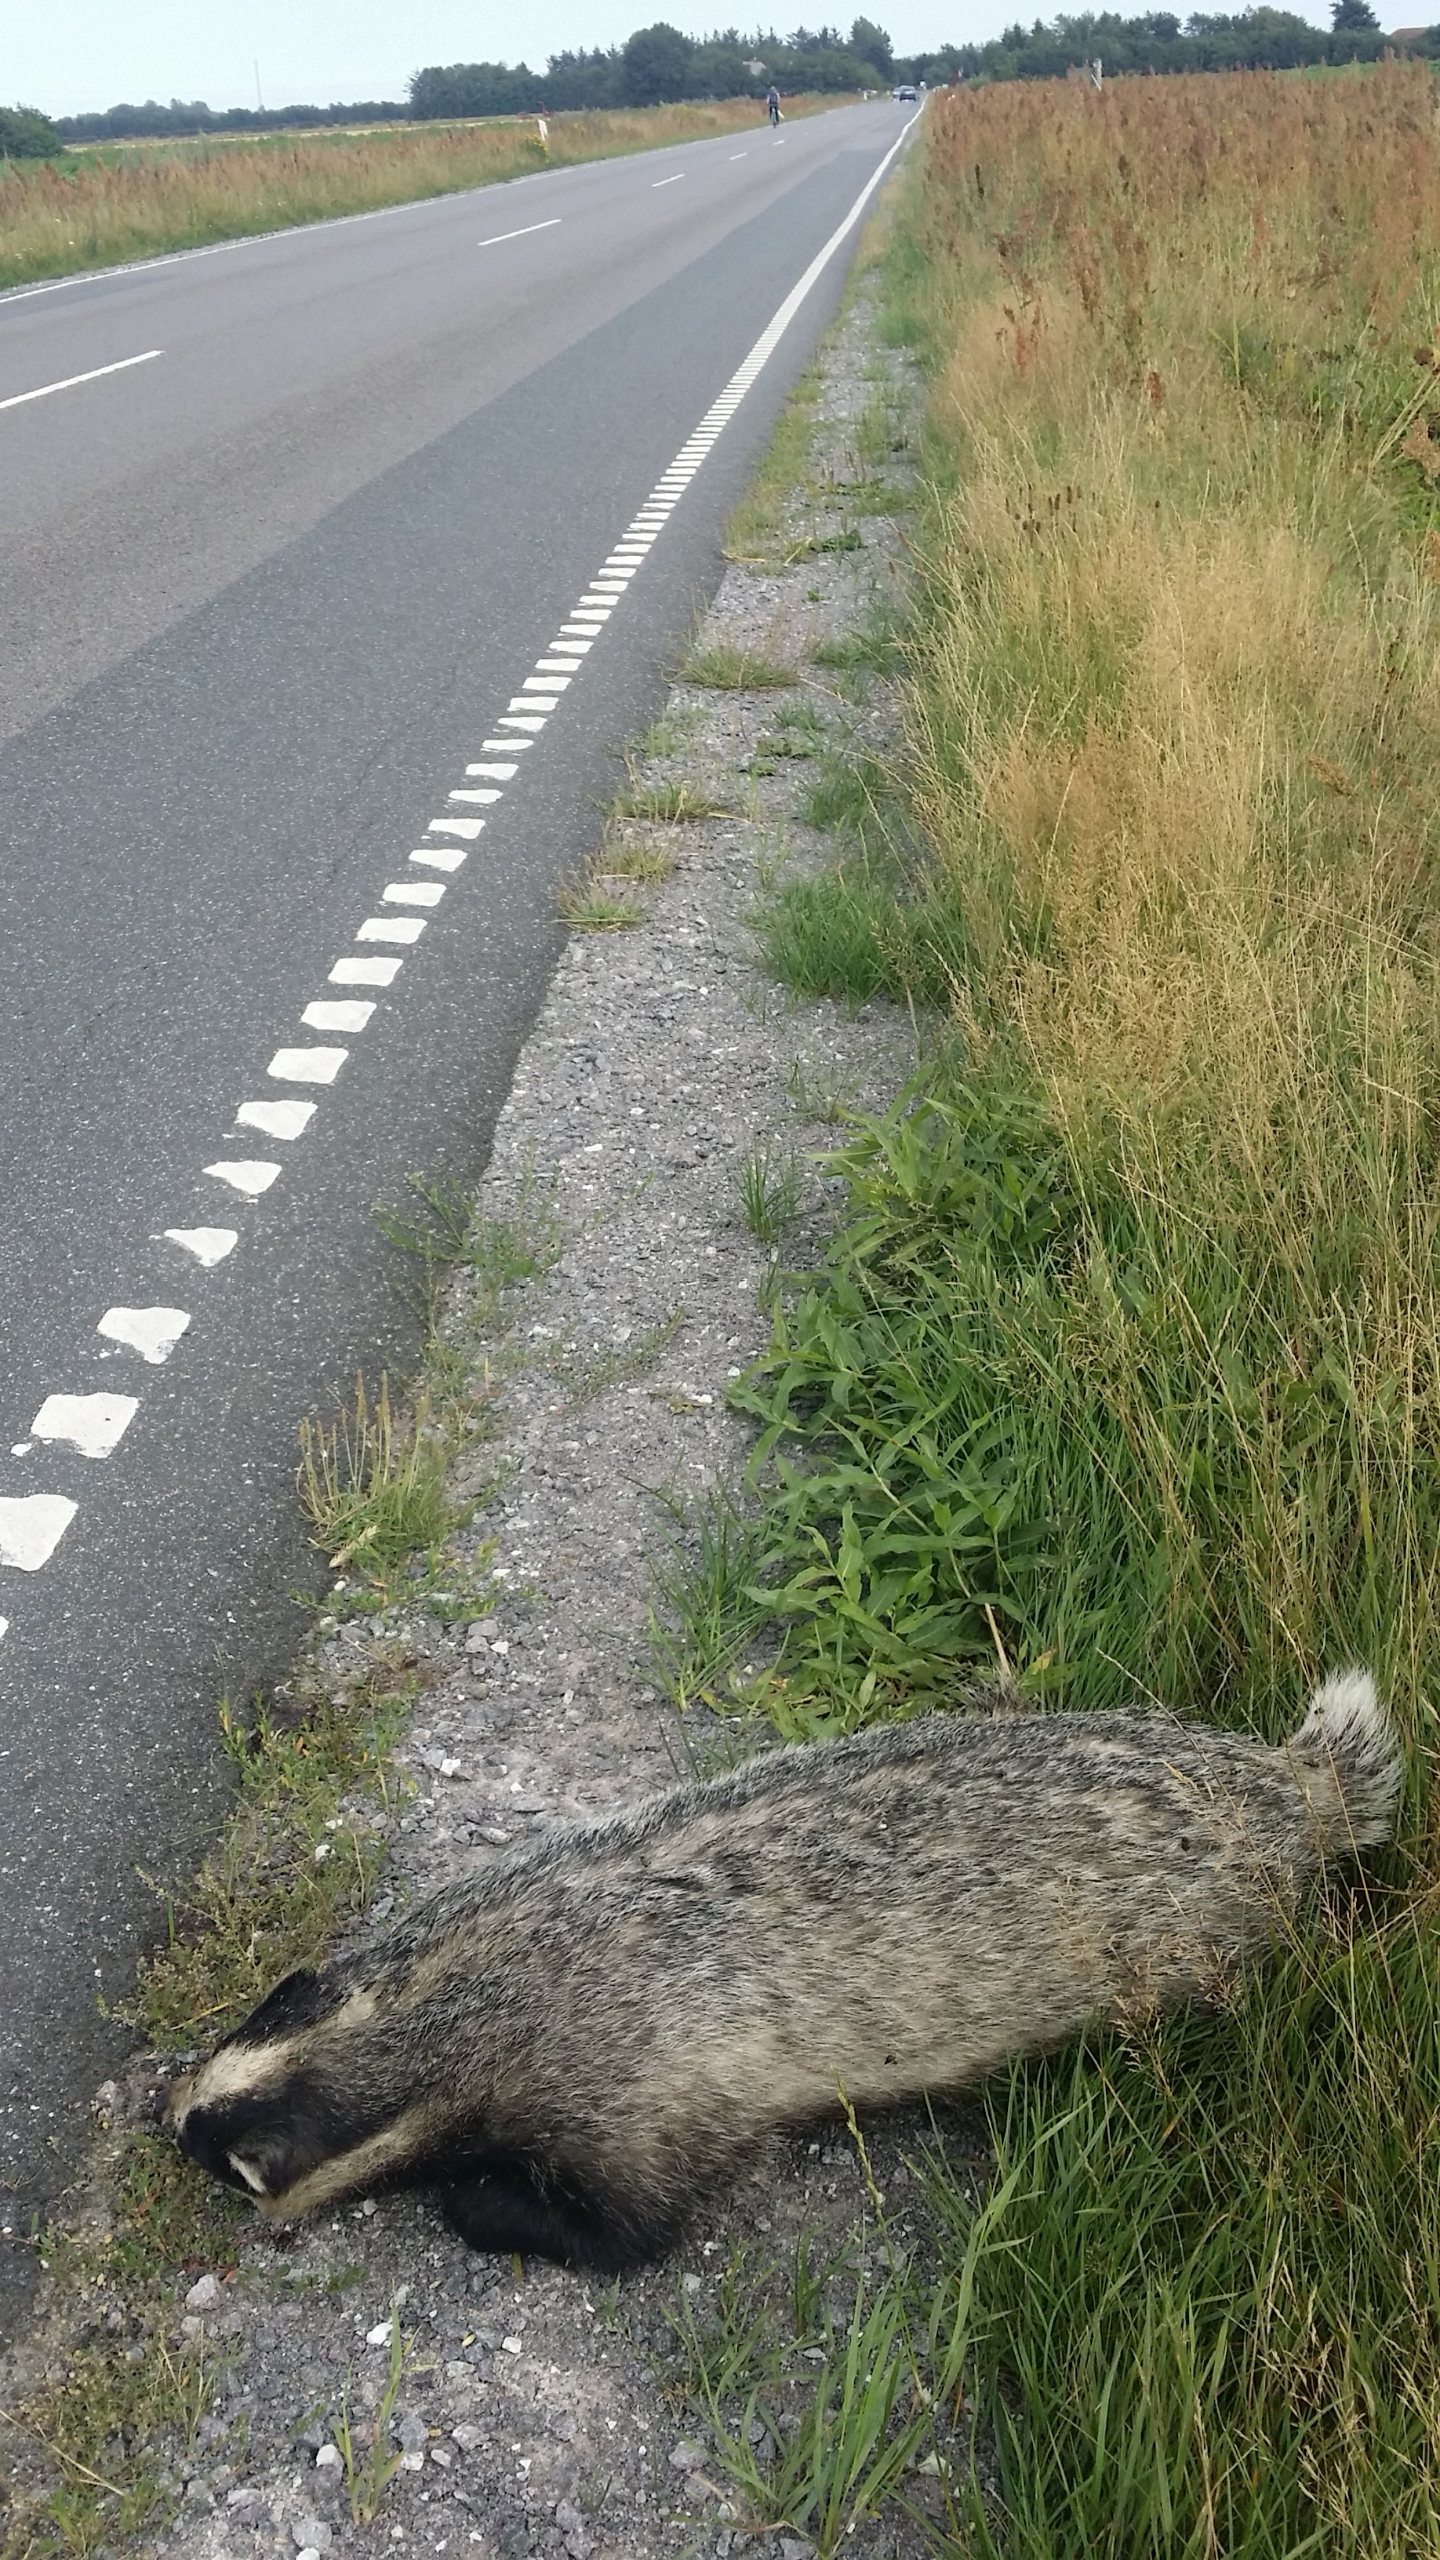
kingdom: Animalia
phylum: Chordata
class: Mammalia
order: Carnivora
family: Mustelidae
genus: Meles
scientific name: Meles meles
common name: Grævling
